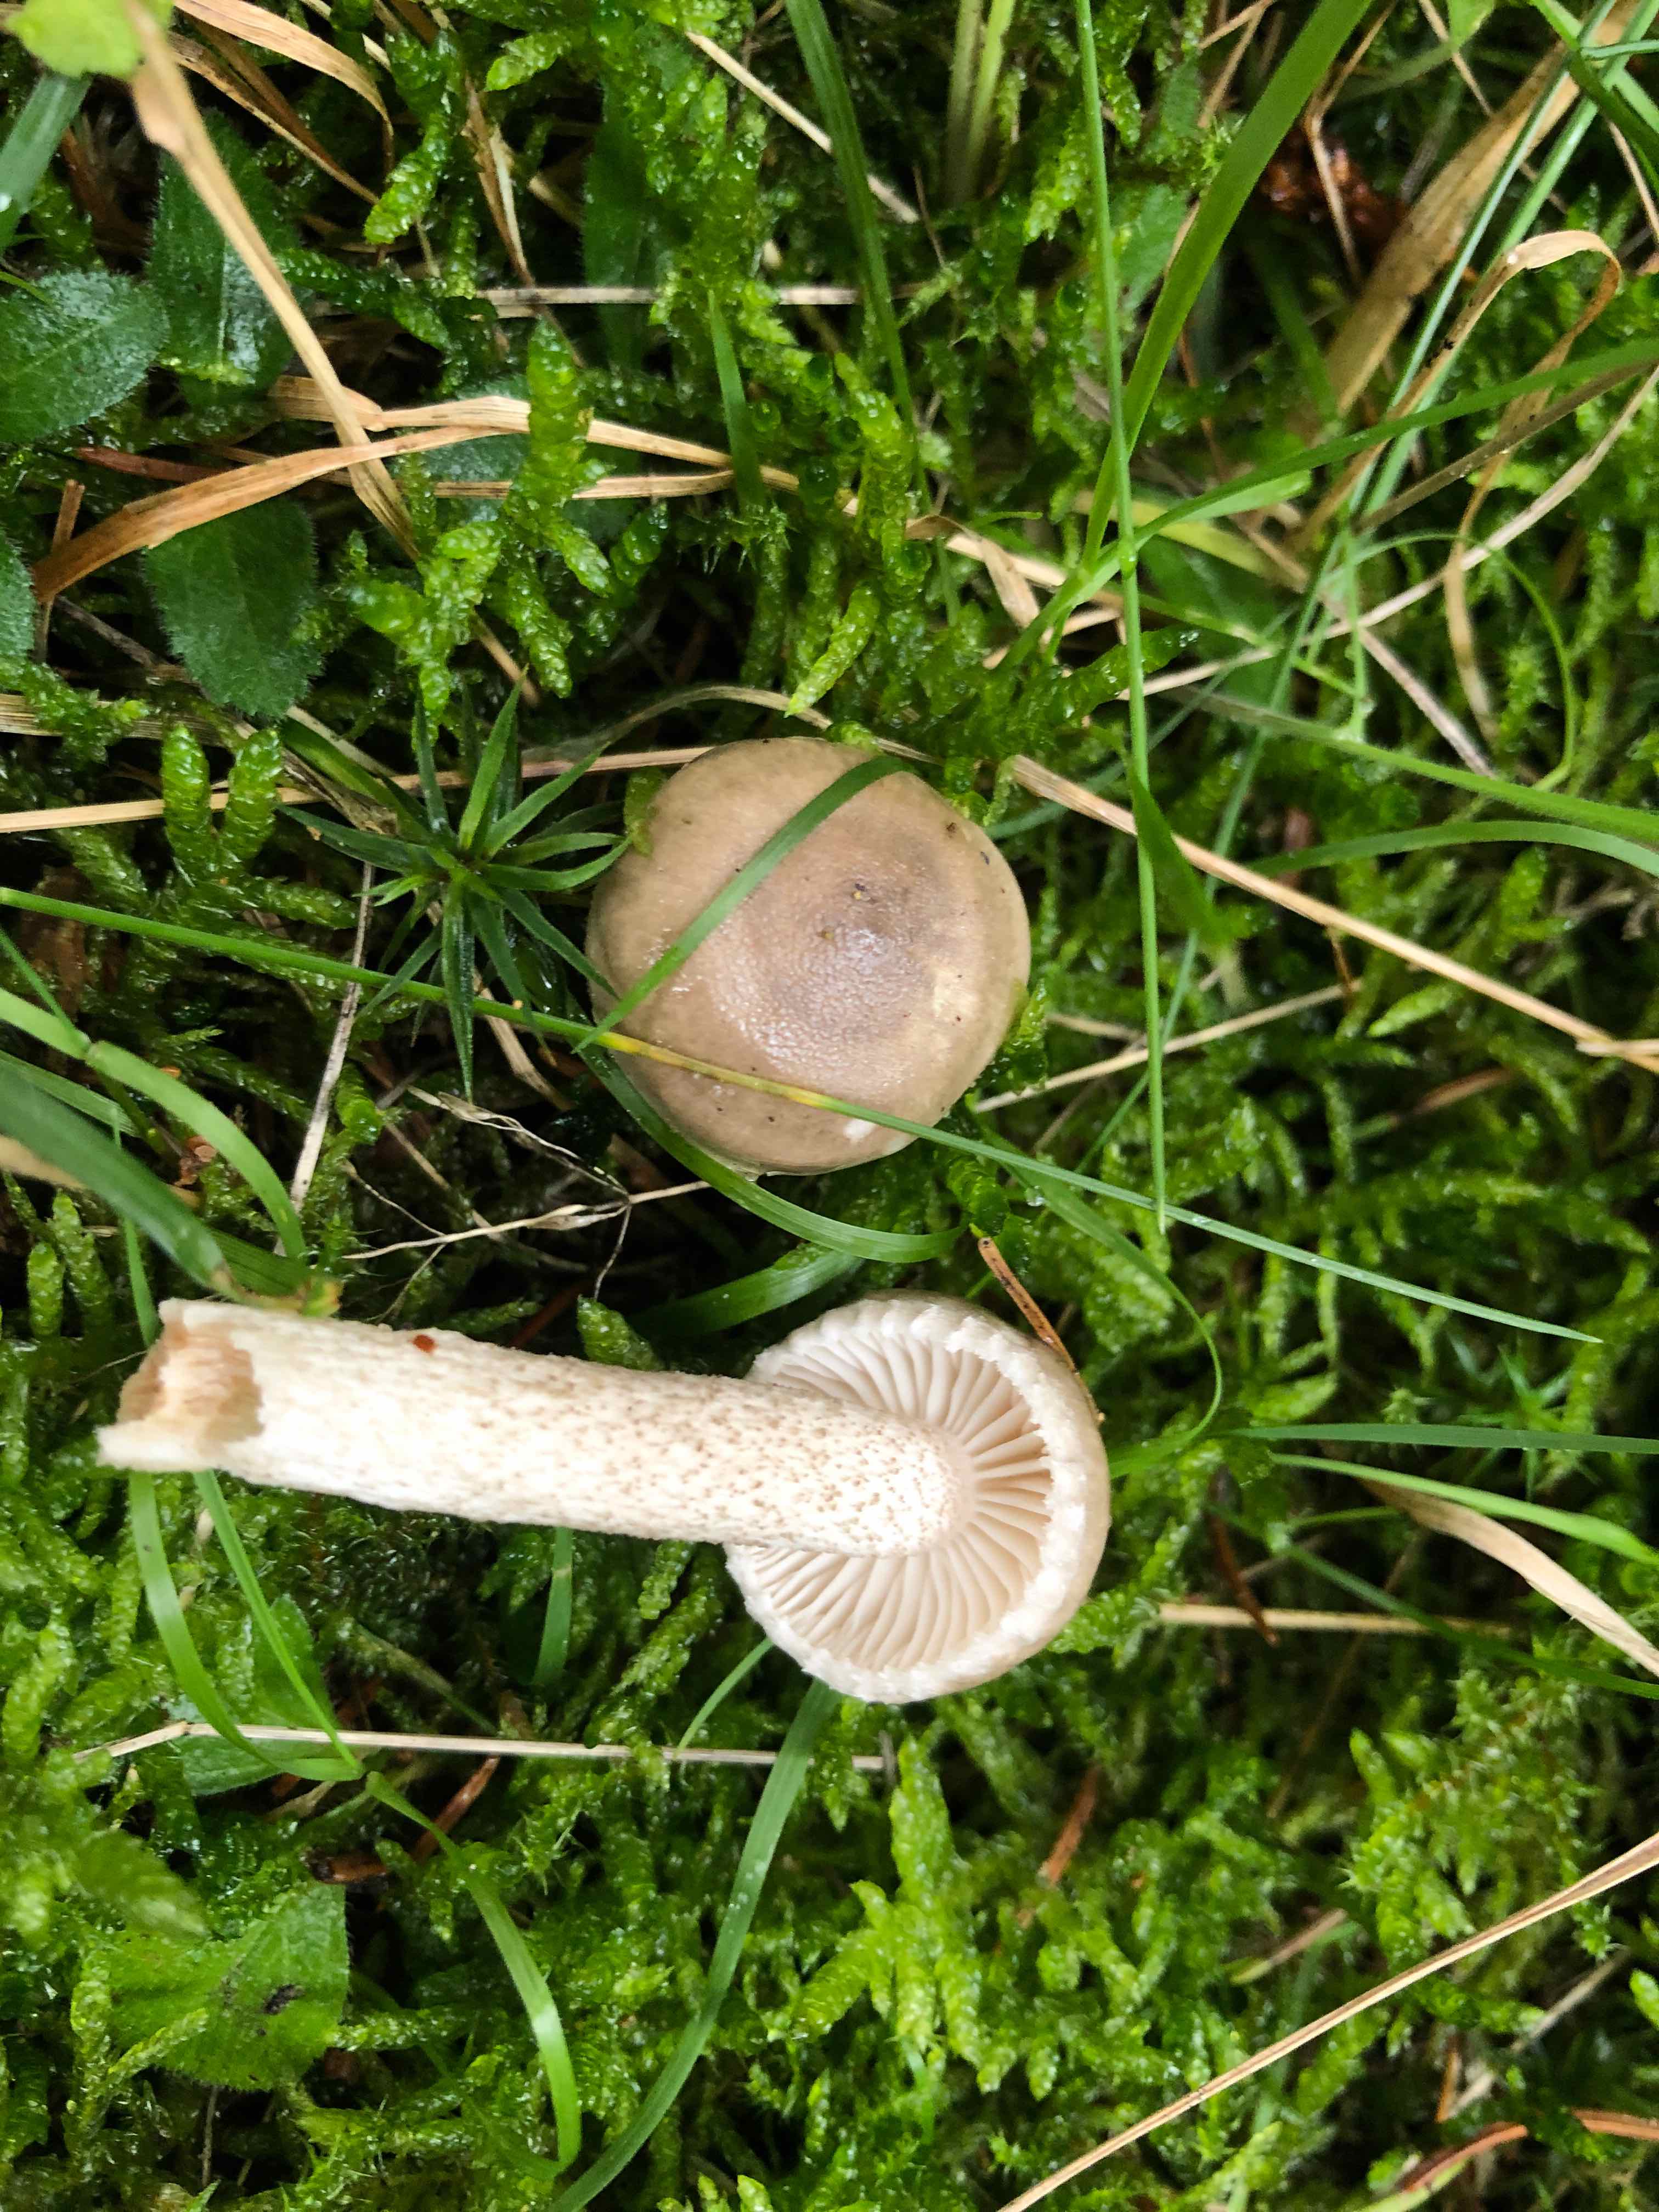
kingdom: Fungi
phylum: Basidiomycota
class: Agaricomycetes
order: Agaricales
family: Hygrophoraceae
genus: Hygrophorus
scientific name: Hygrophorus pustulatus
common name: mørkprikket sneglehat
